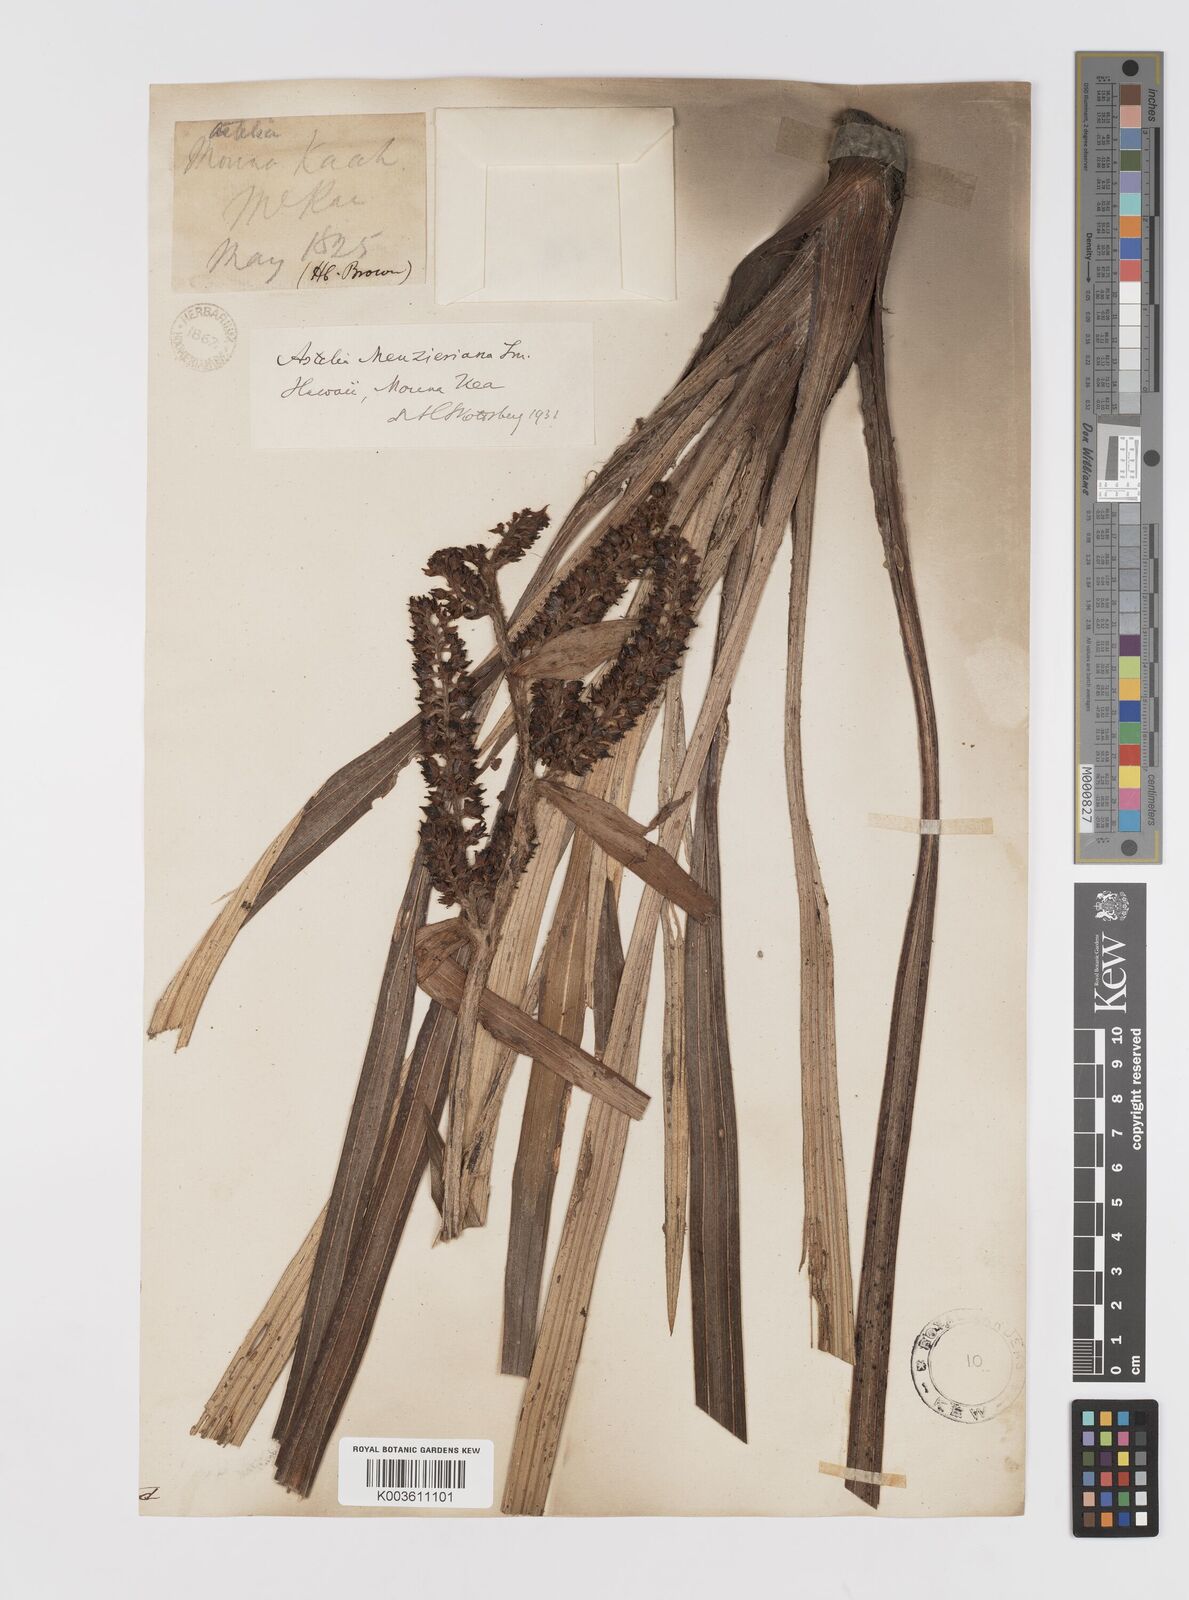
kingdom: Plantae
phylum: Tracheophyta
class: Liliopsida
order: Asparagales
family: Asteliaceae
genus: Astelia
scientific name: Astelia menziesiana
